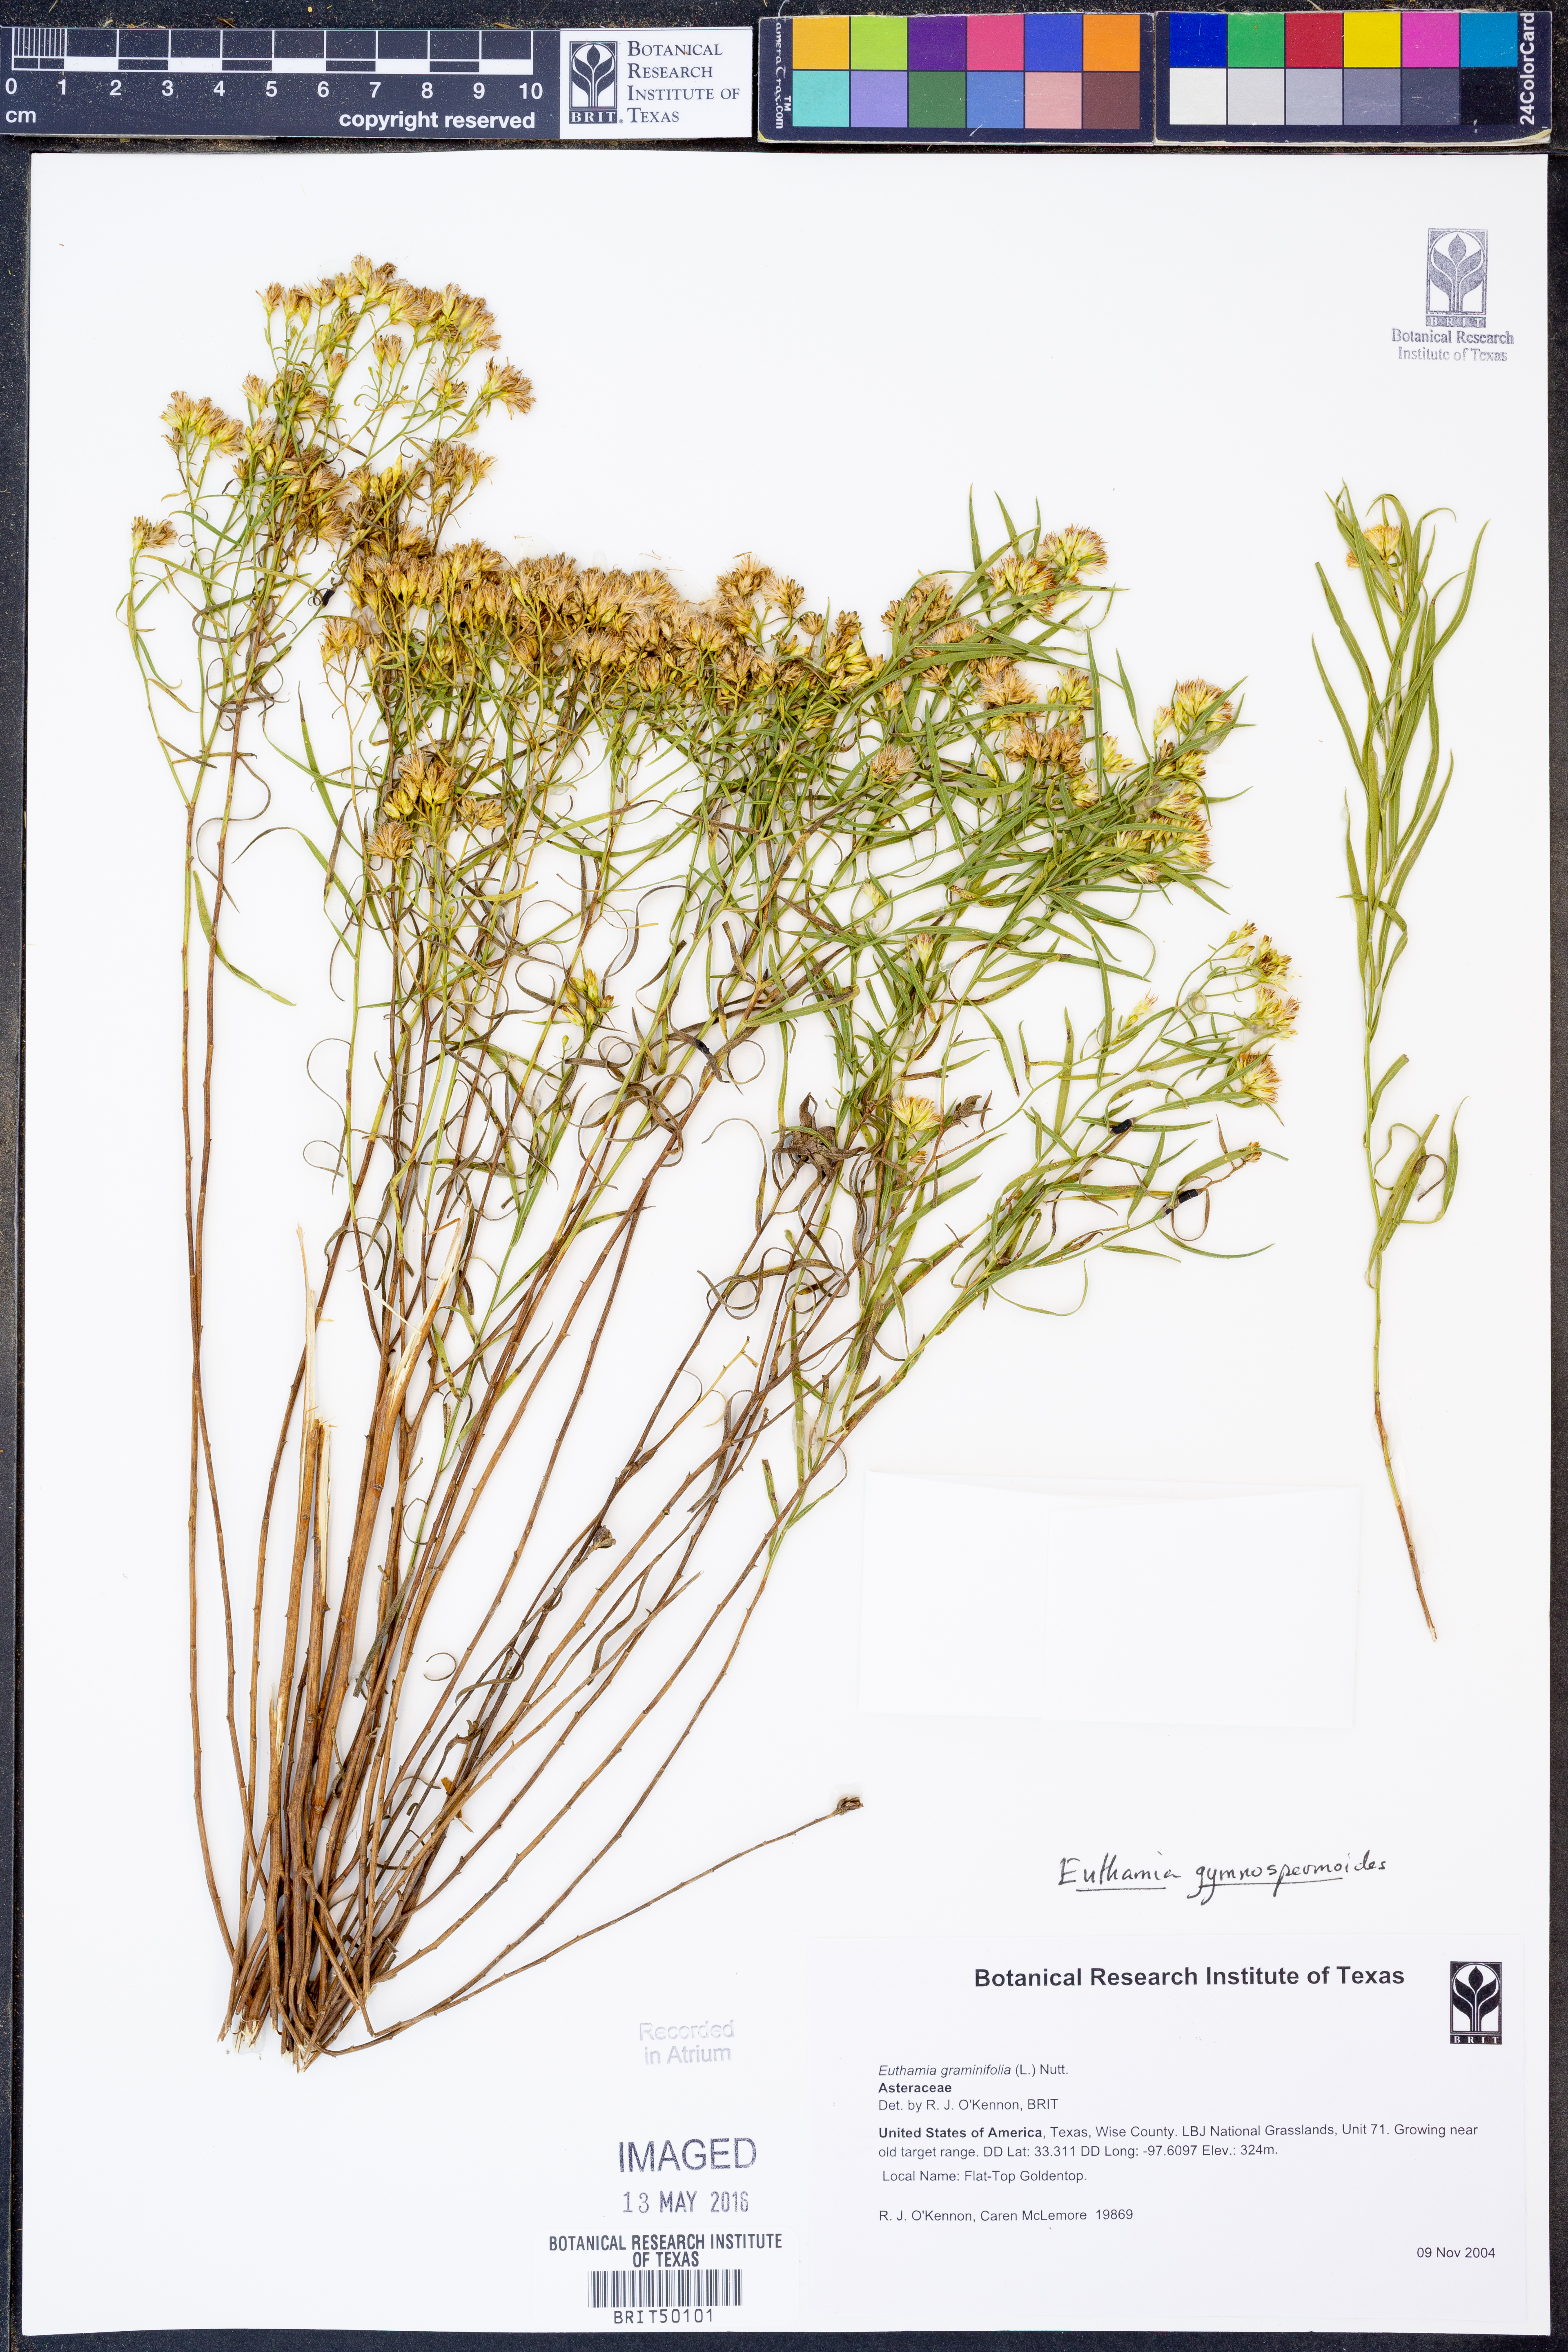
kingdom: Plantae
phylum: Tracheophyta
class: Magnoliopsida
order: Asterales
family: Asteraceae
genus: Euthamia
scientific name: Euthamia graminifolia
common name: Common goldentop
